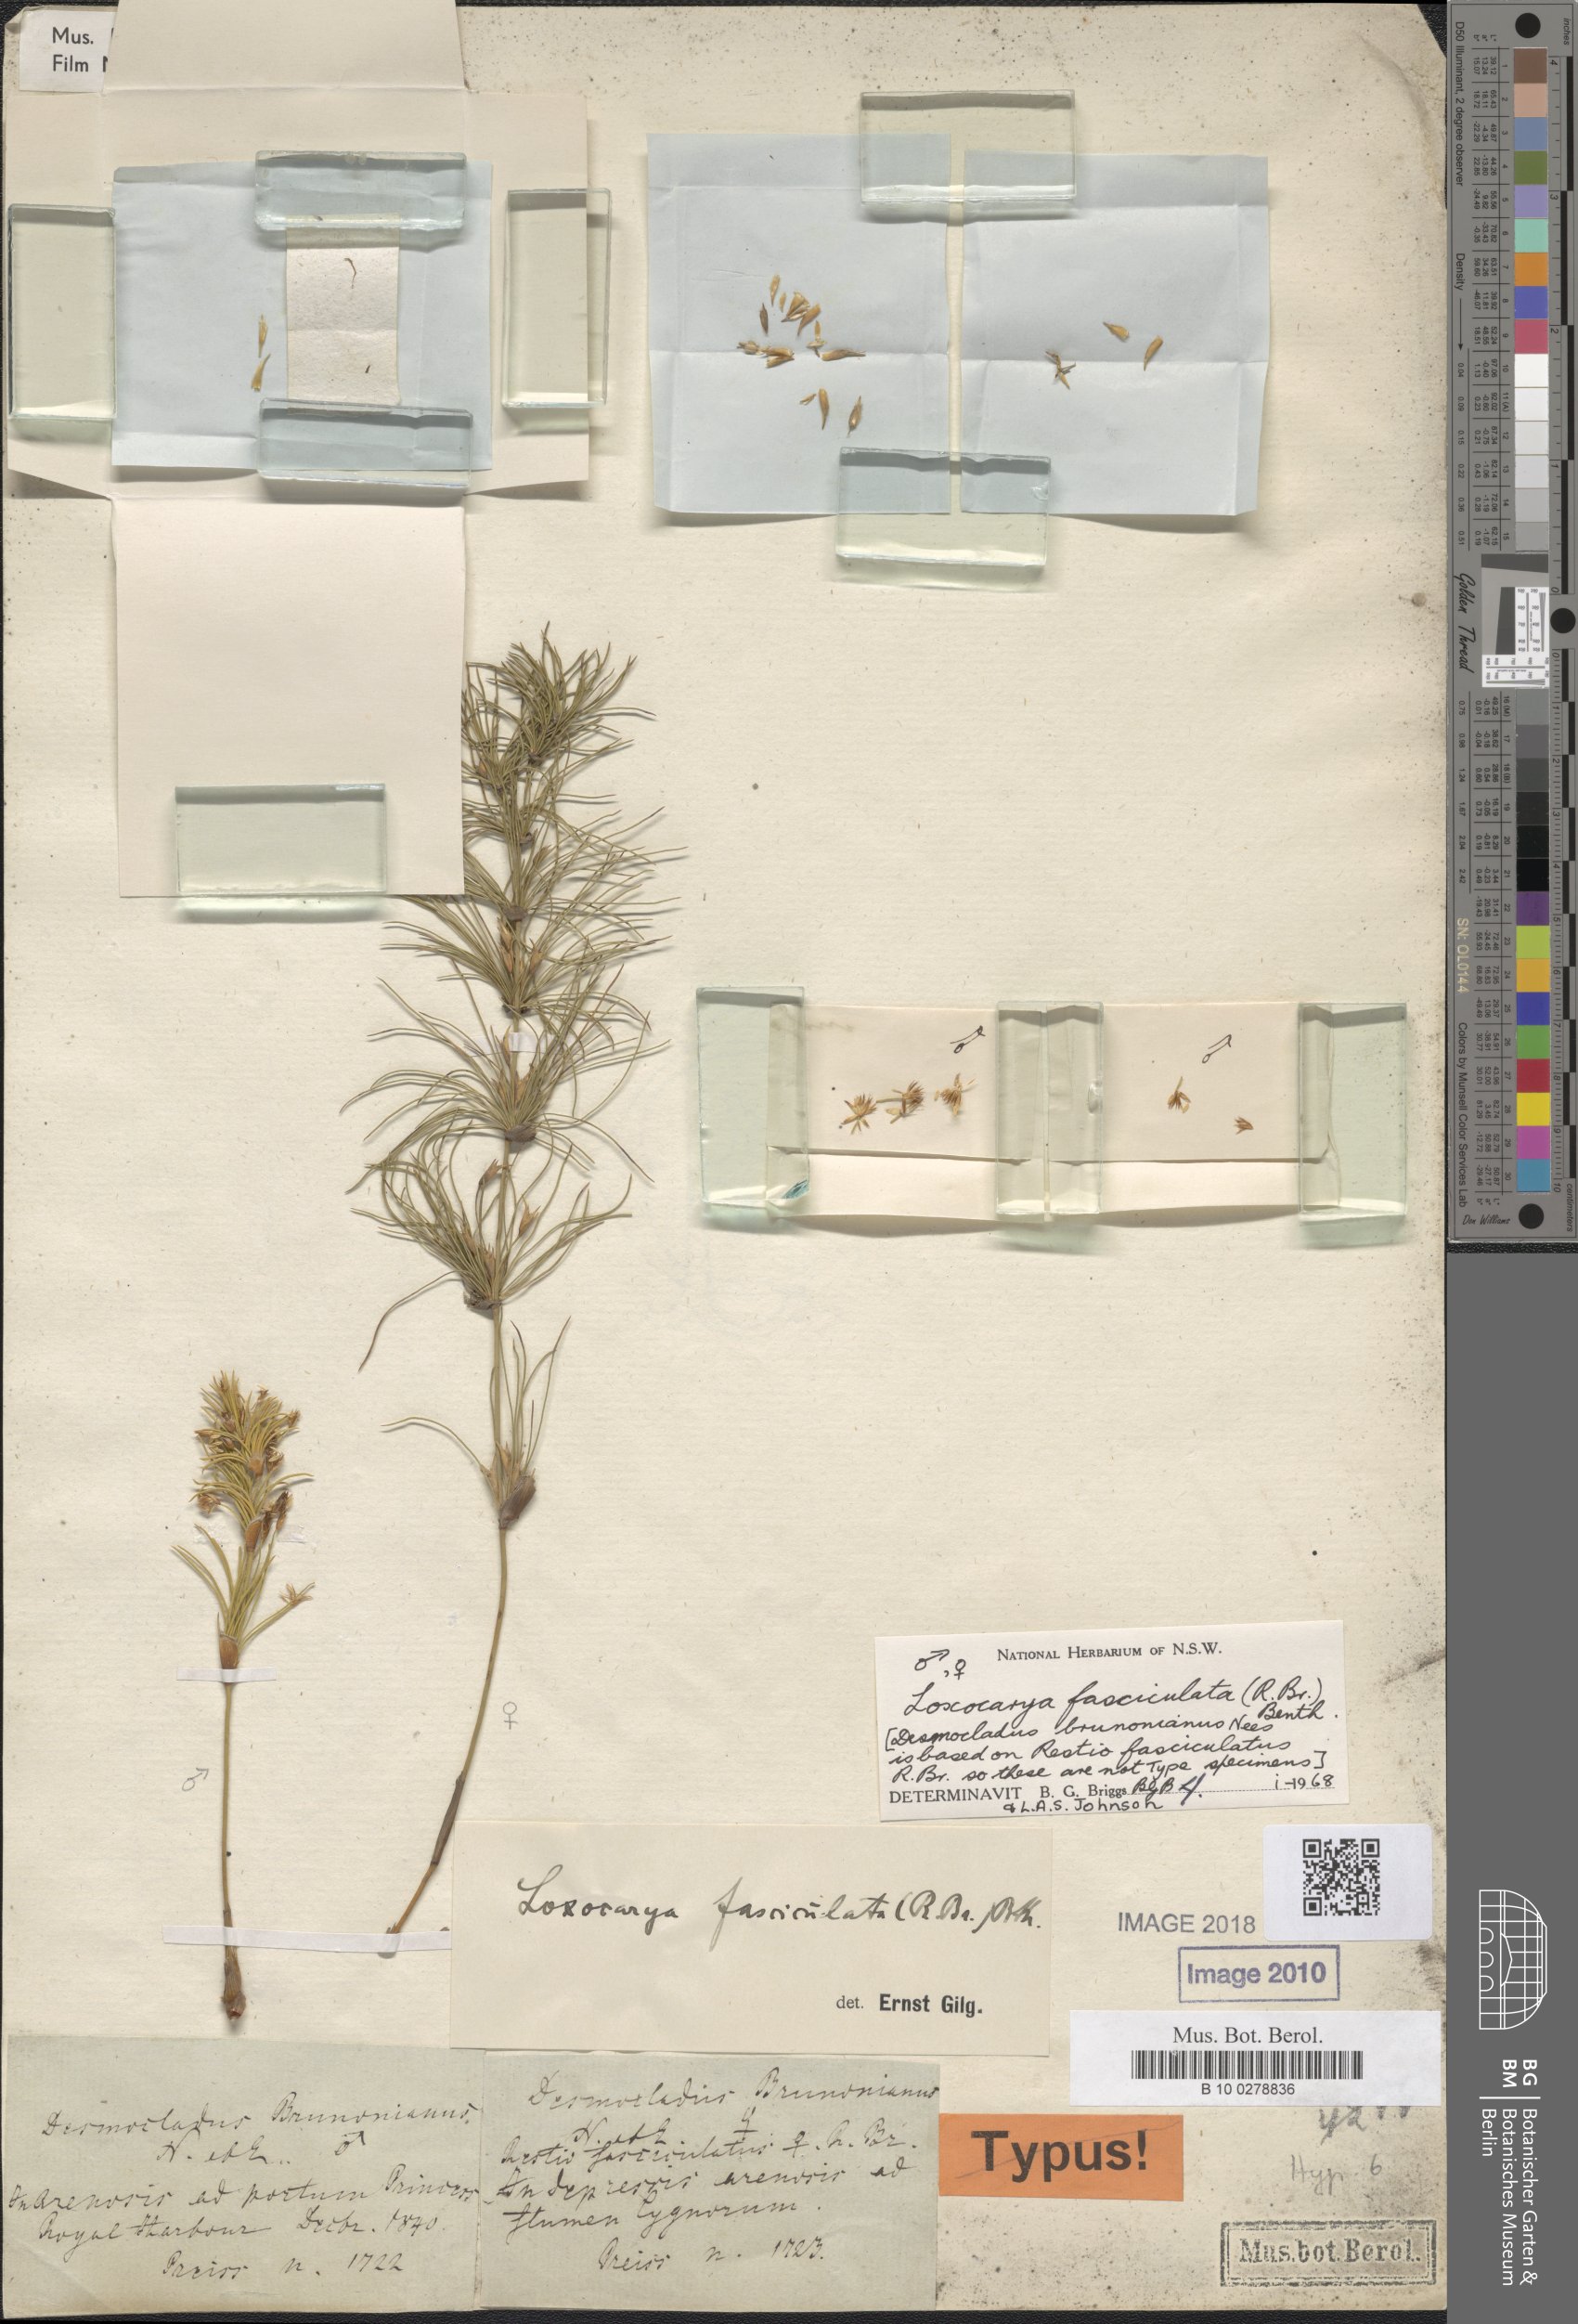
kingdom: Plantae
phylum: Tracheophyta
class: Liliopsida
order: Poales
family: Restionaceae
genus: Desmocladus
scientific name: Desmocladus fasciculatus
